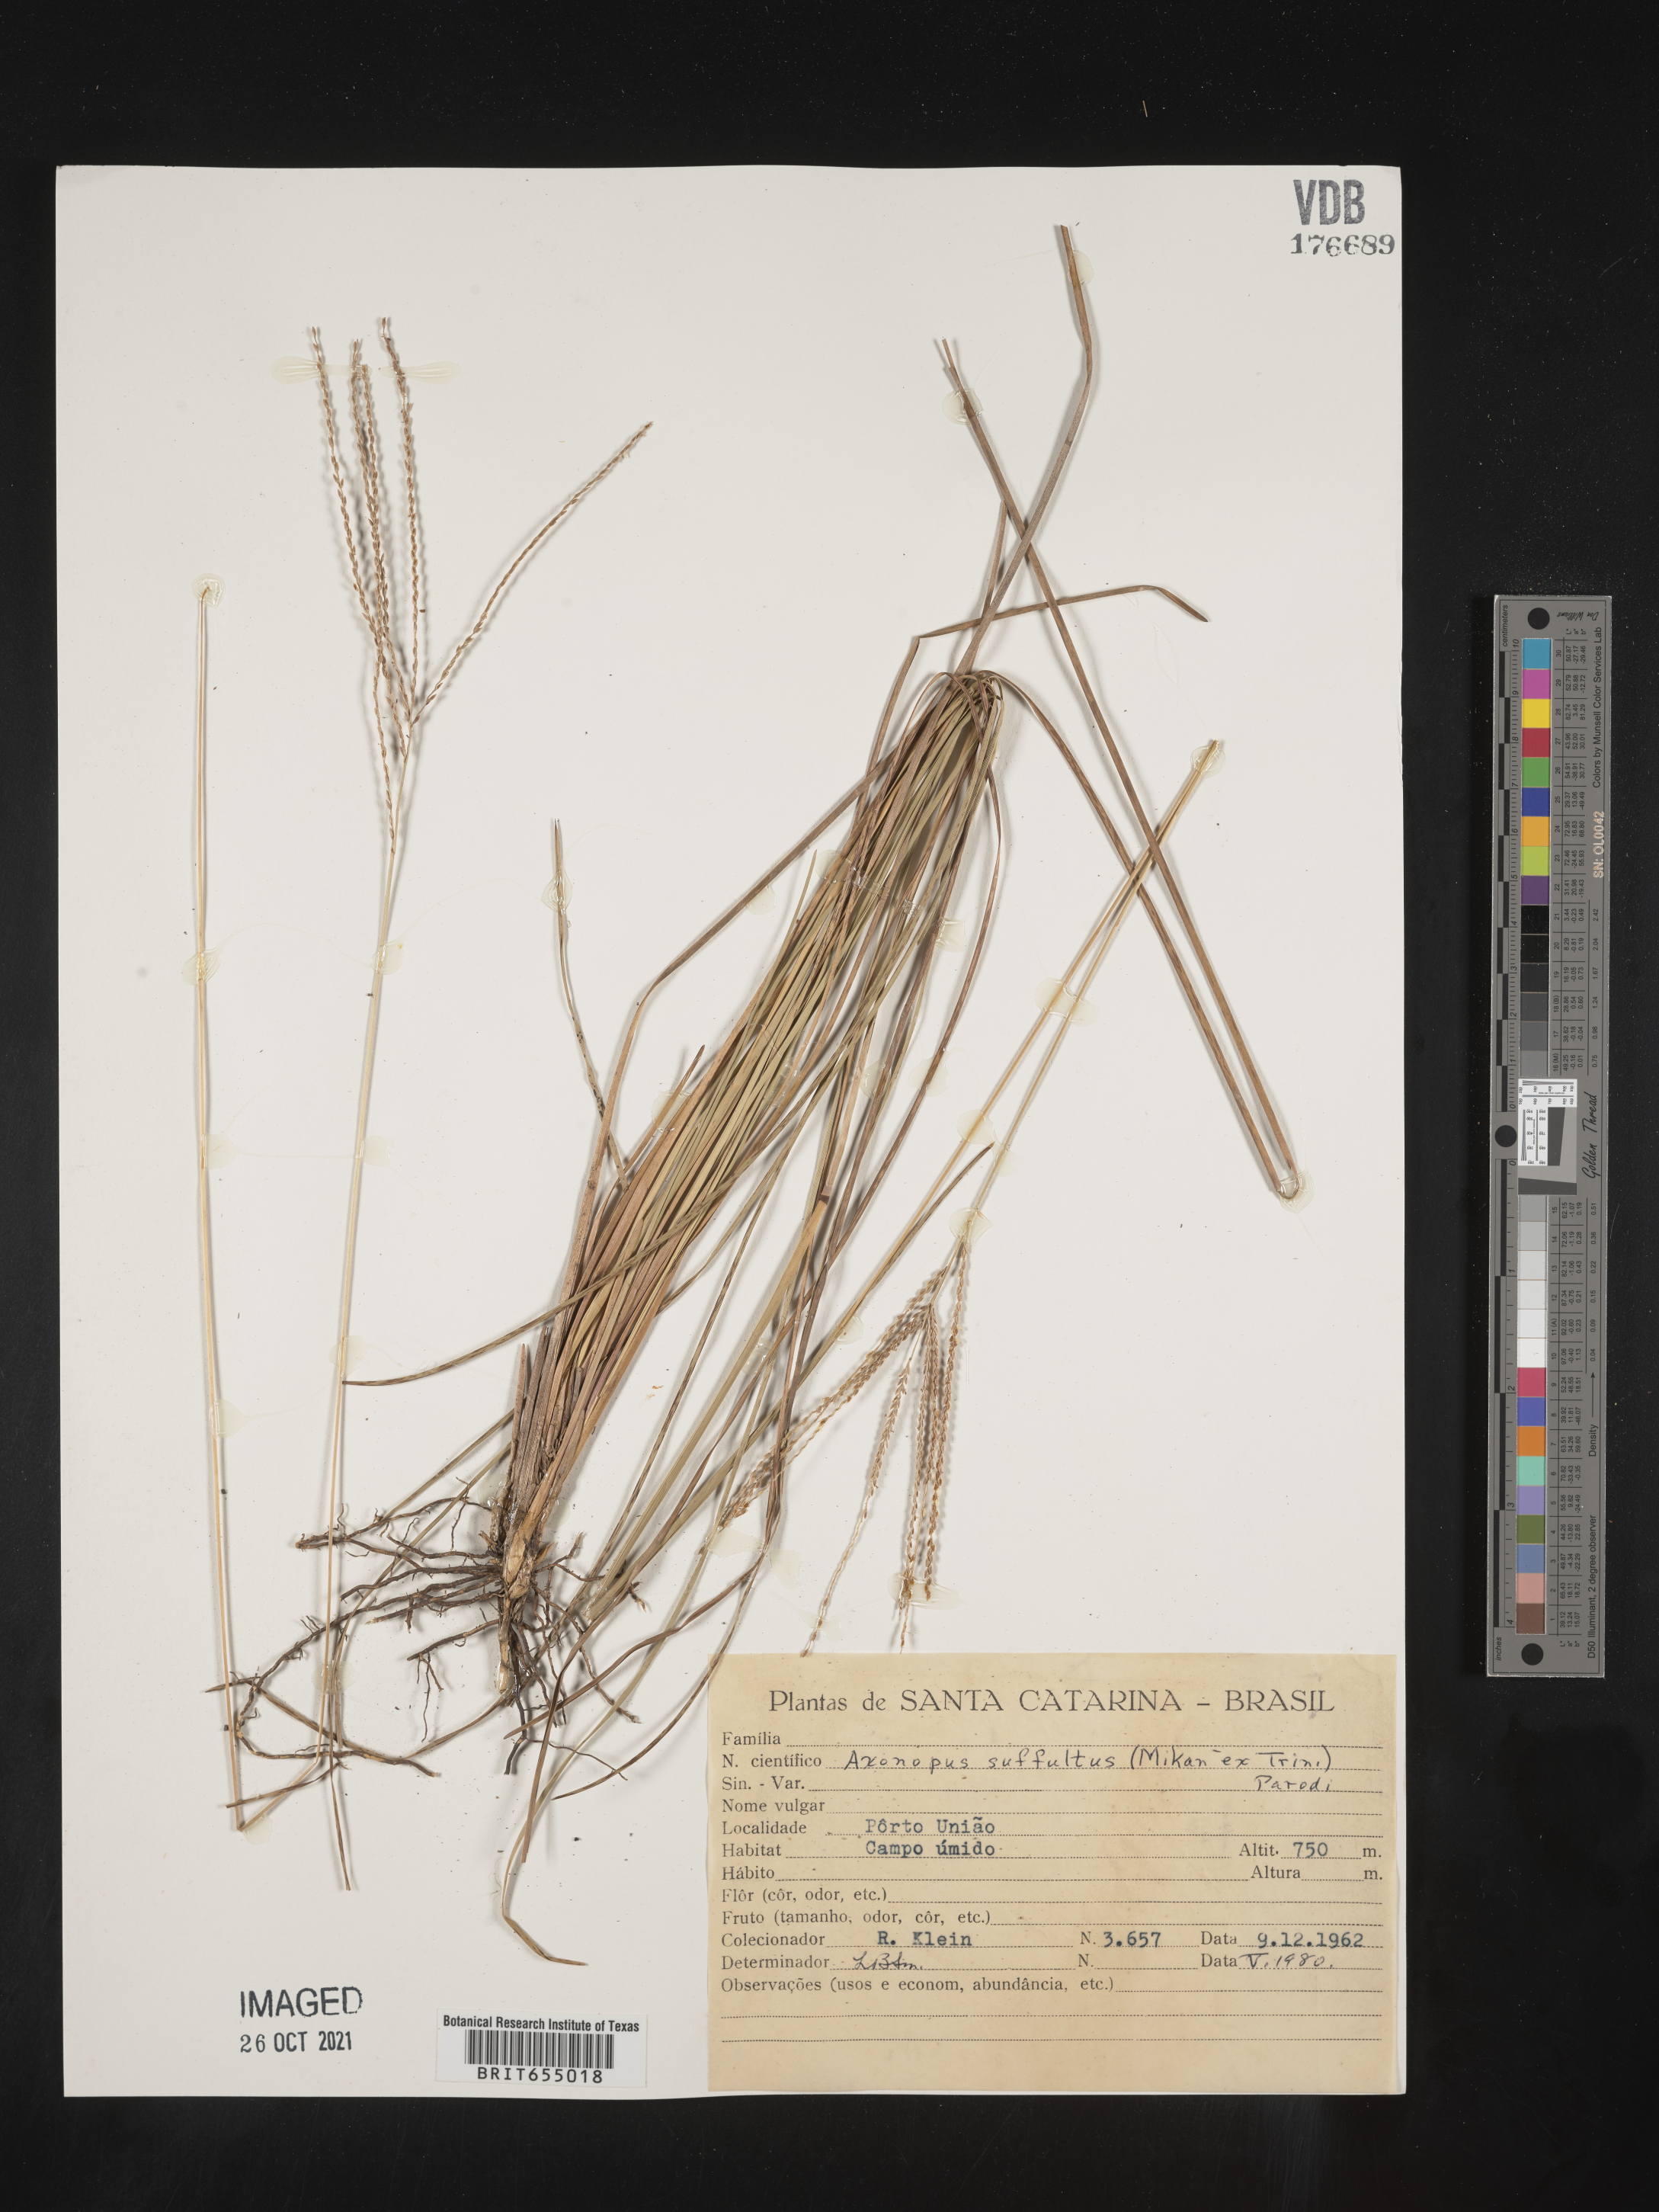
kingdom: Plantae
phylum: Tracheophyta
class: Liliopsida
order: Poales
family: Poaceae
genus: Axonopus
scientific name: Axonopus
